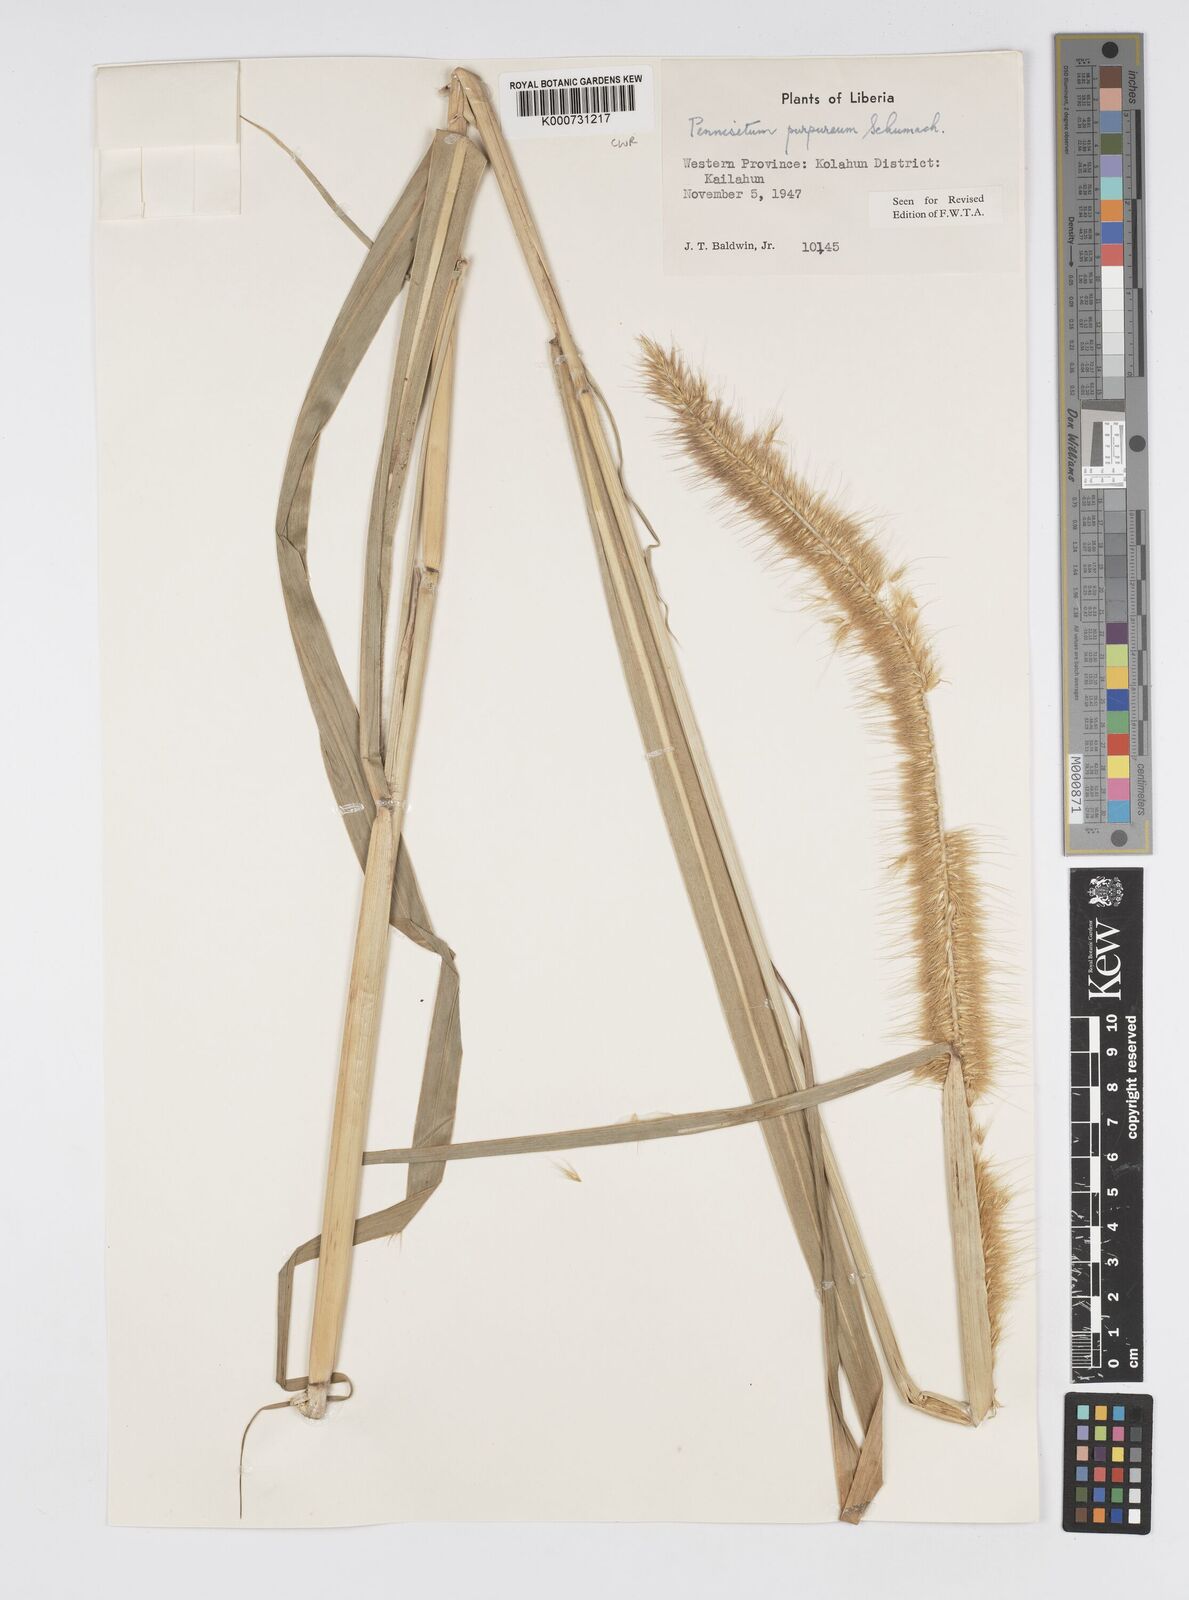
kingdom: Plantae
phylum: Tracheophyta
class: Liliopsida
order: Poales
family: Poaceae
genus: Cenchrus
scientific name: Cenchrus purpureus
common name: Elephant grass
